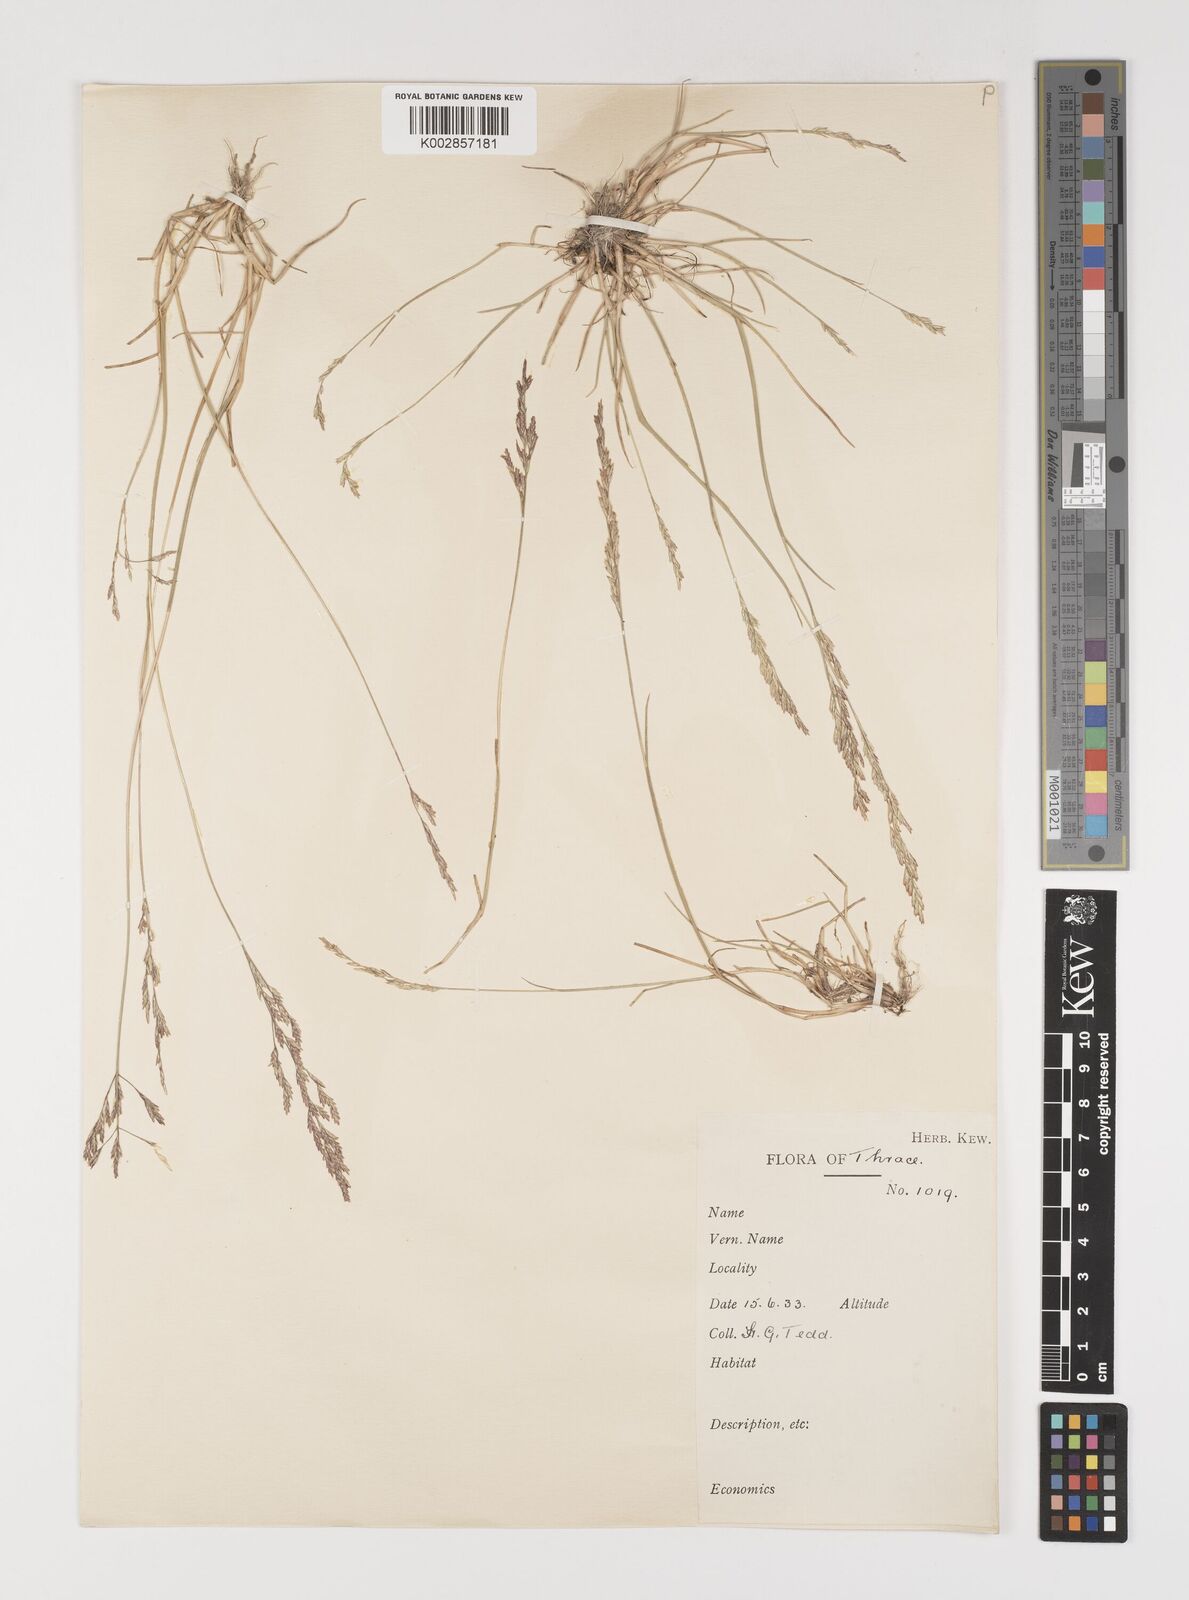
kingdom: Plantae
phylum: Tracheophyta
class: Liliopsida
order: Poales
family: Poaceae
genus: Puccinellia
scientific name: Puccinellia convoluta
